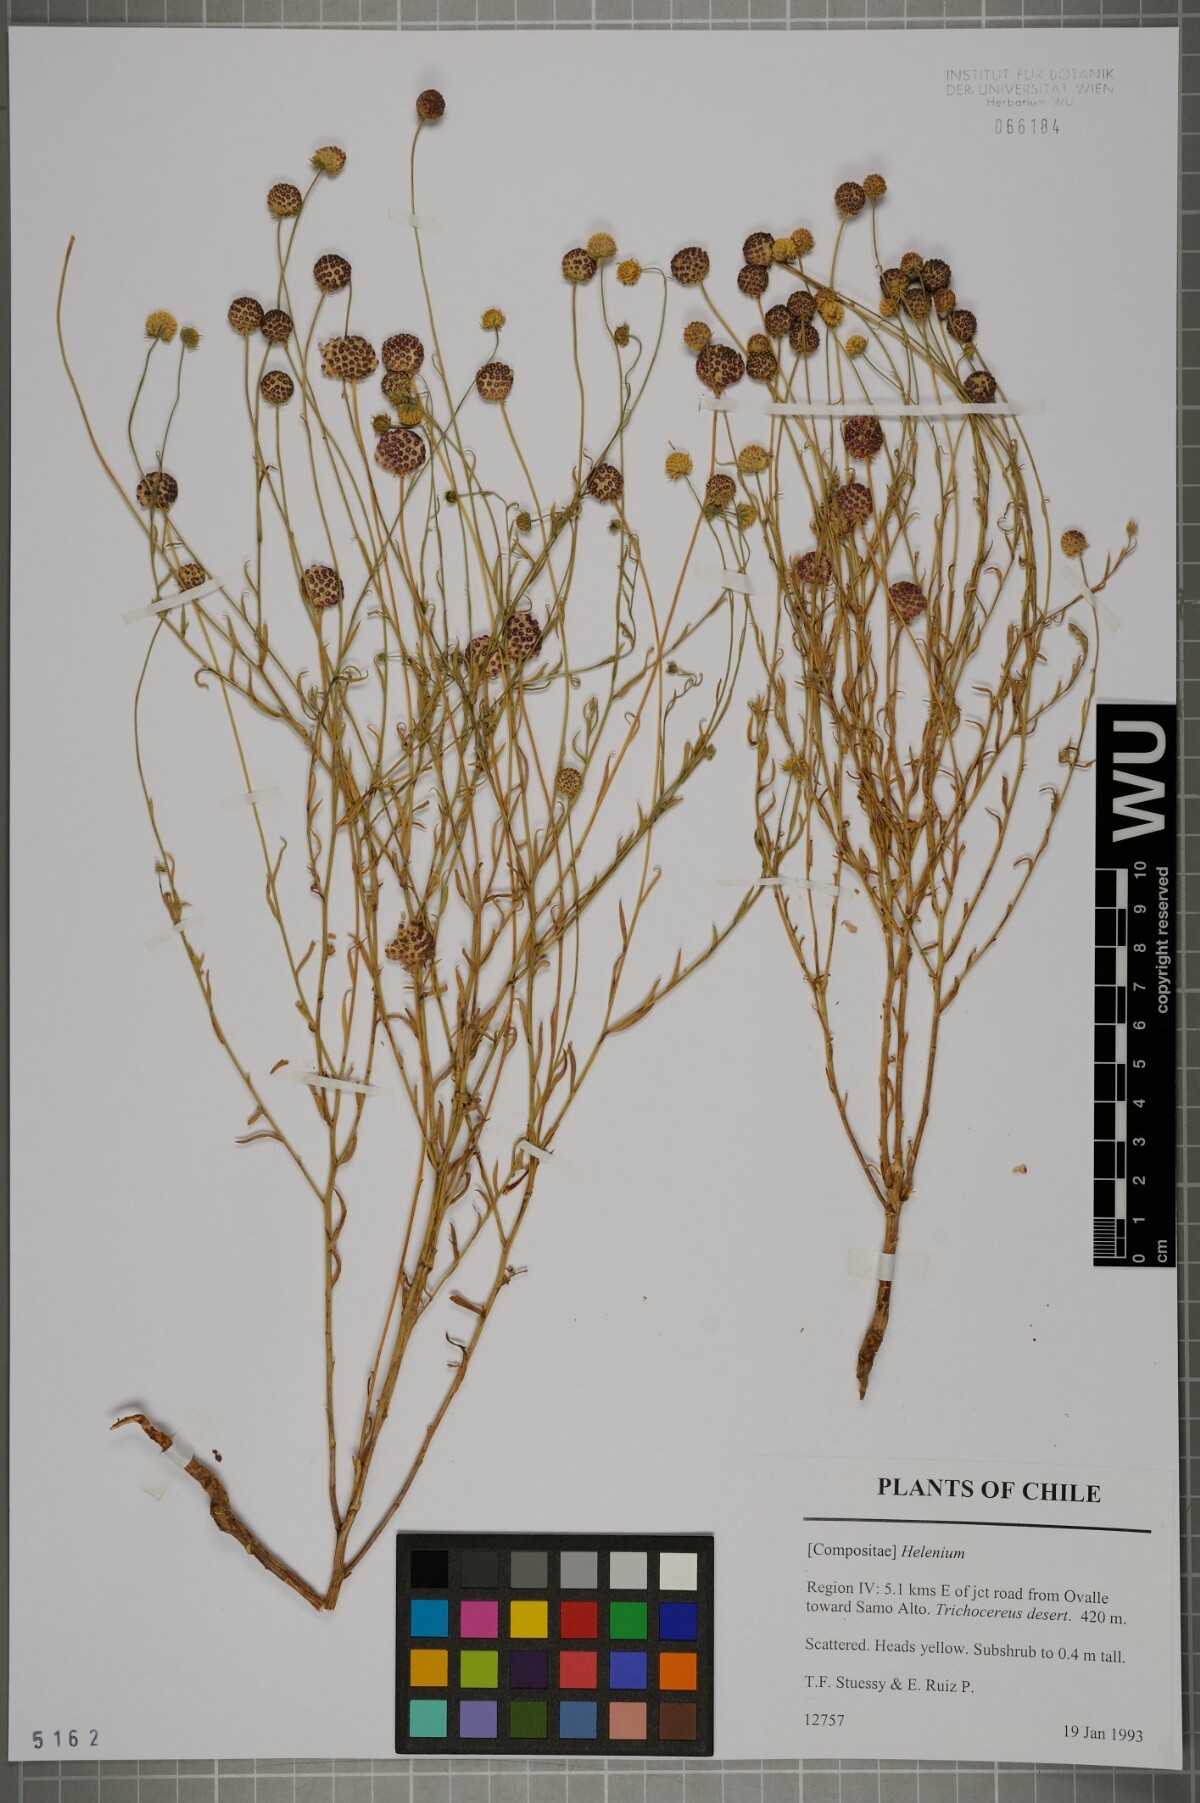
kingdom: Plantae
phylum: Tracheophyta
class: Magnoliopsida
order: Asterales
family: Asteraceae
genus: Helenium
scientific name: Helenium
